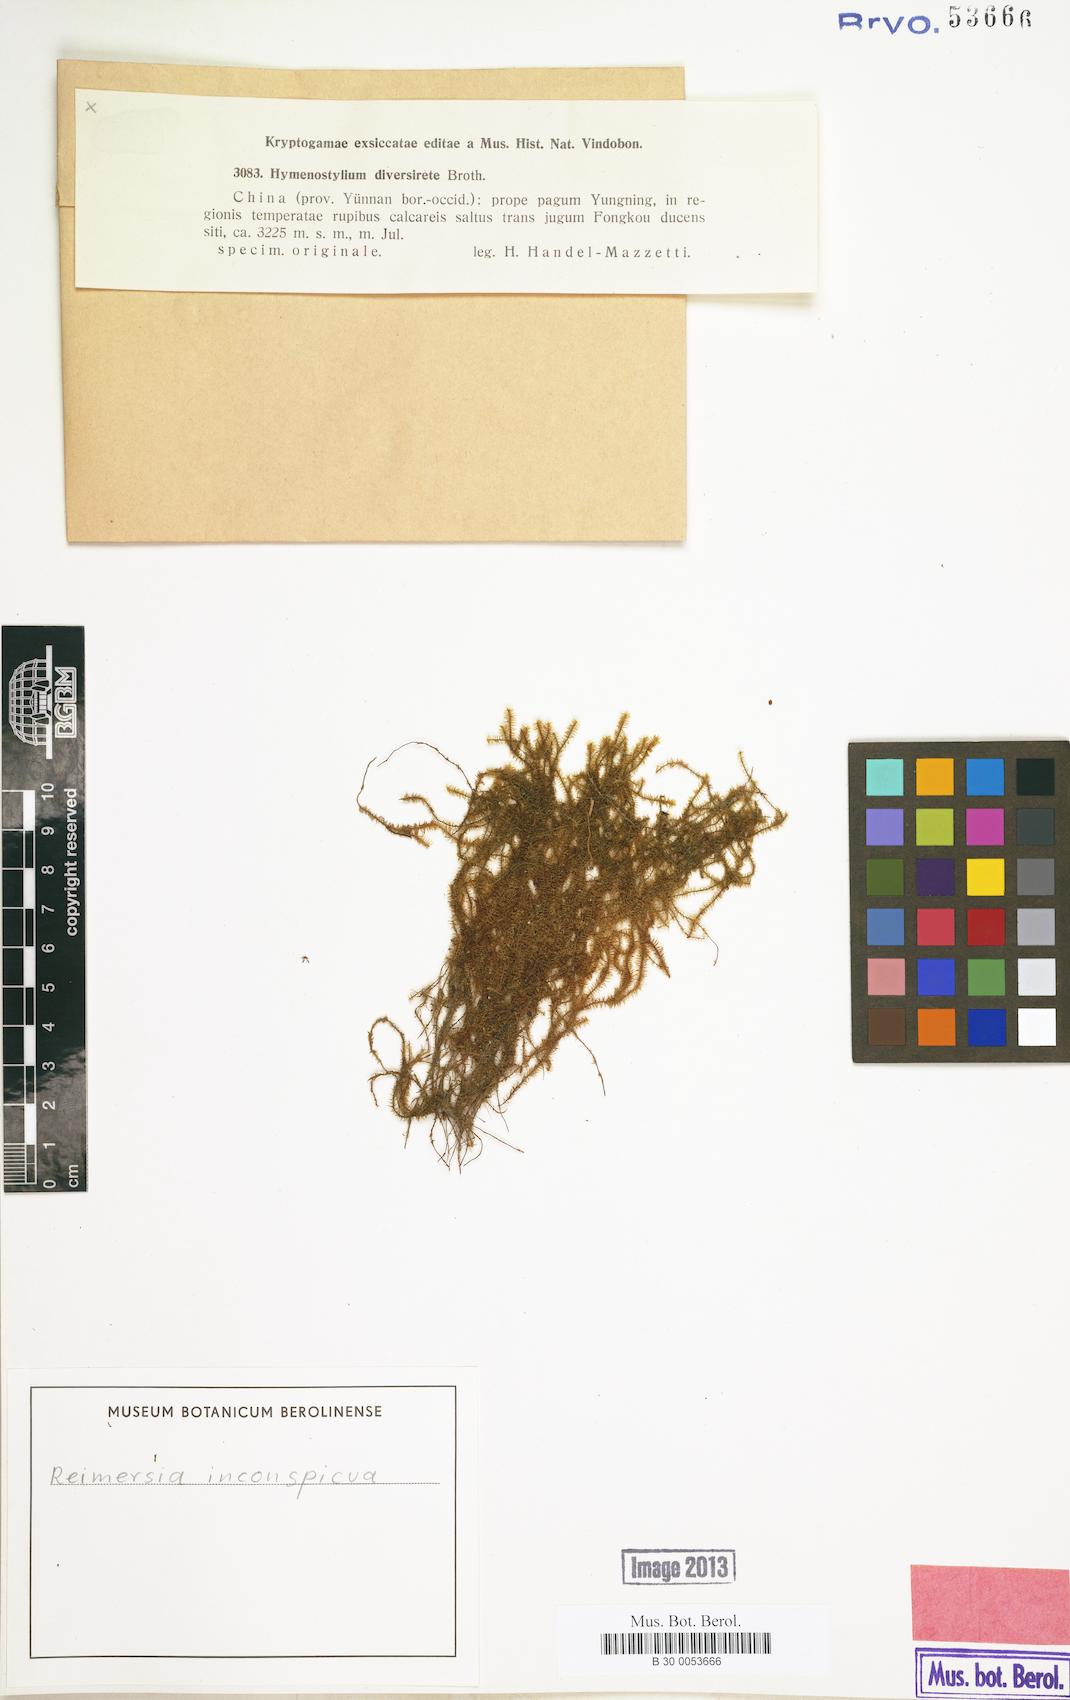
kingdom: Plantae
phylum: Bryophyta
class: Bryopsida
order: Pottiales
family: Pottiaceae
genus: Reimersia
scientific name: Reimersia inconspicua
